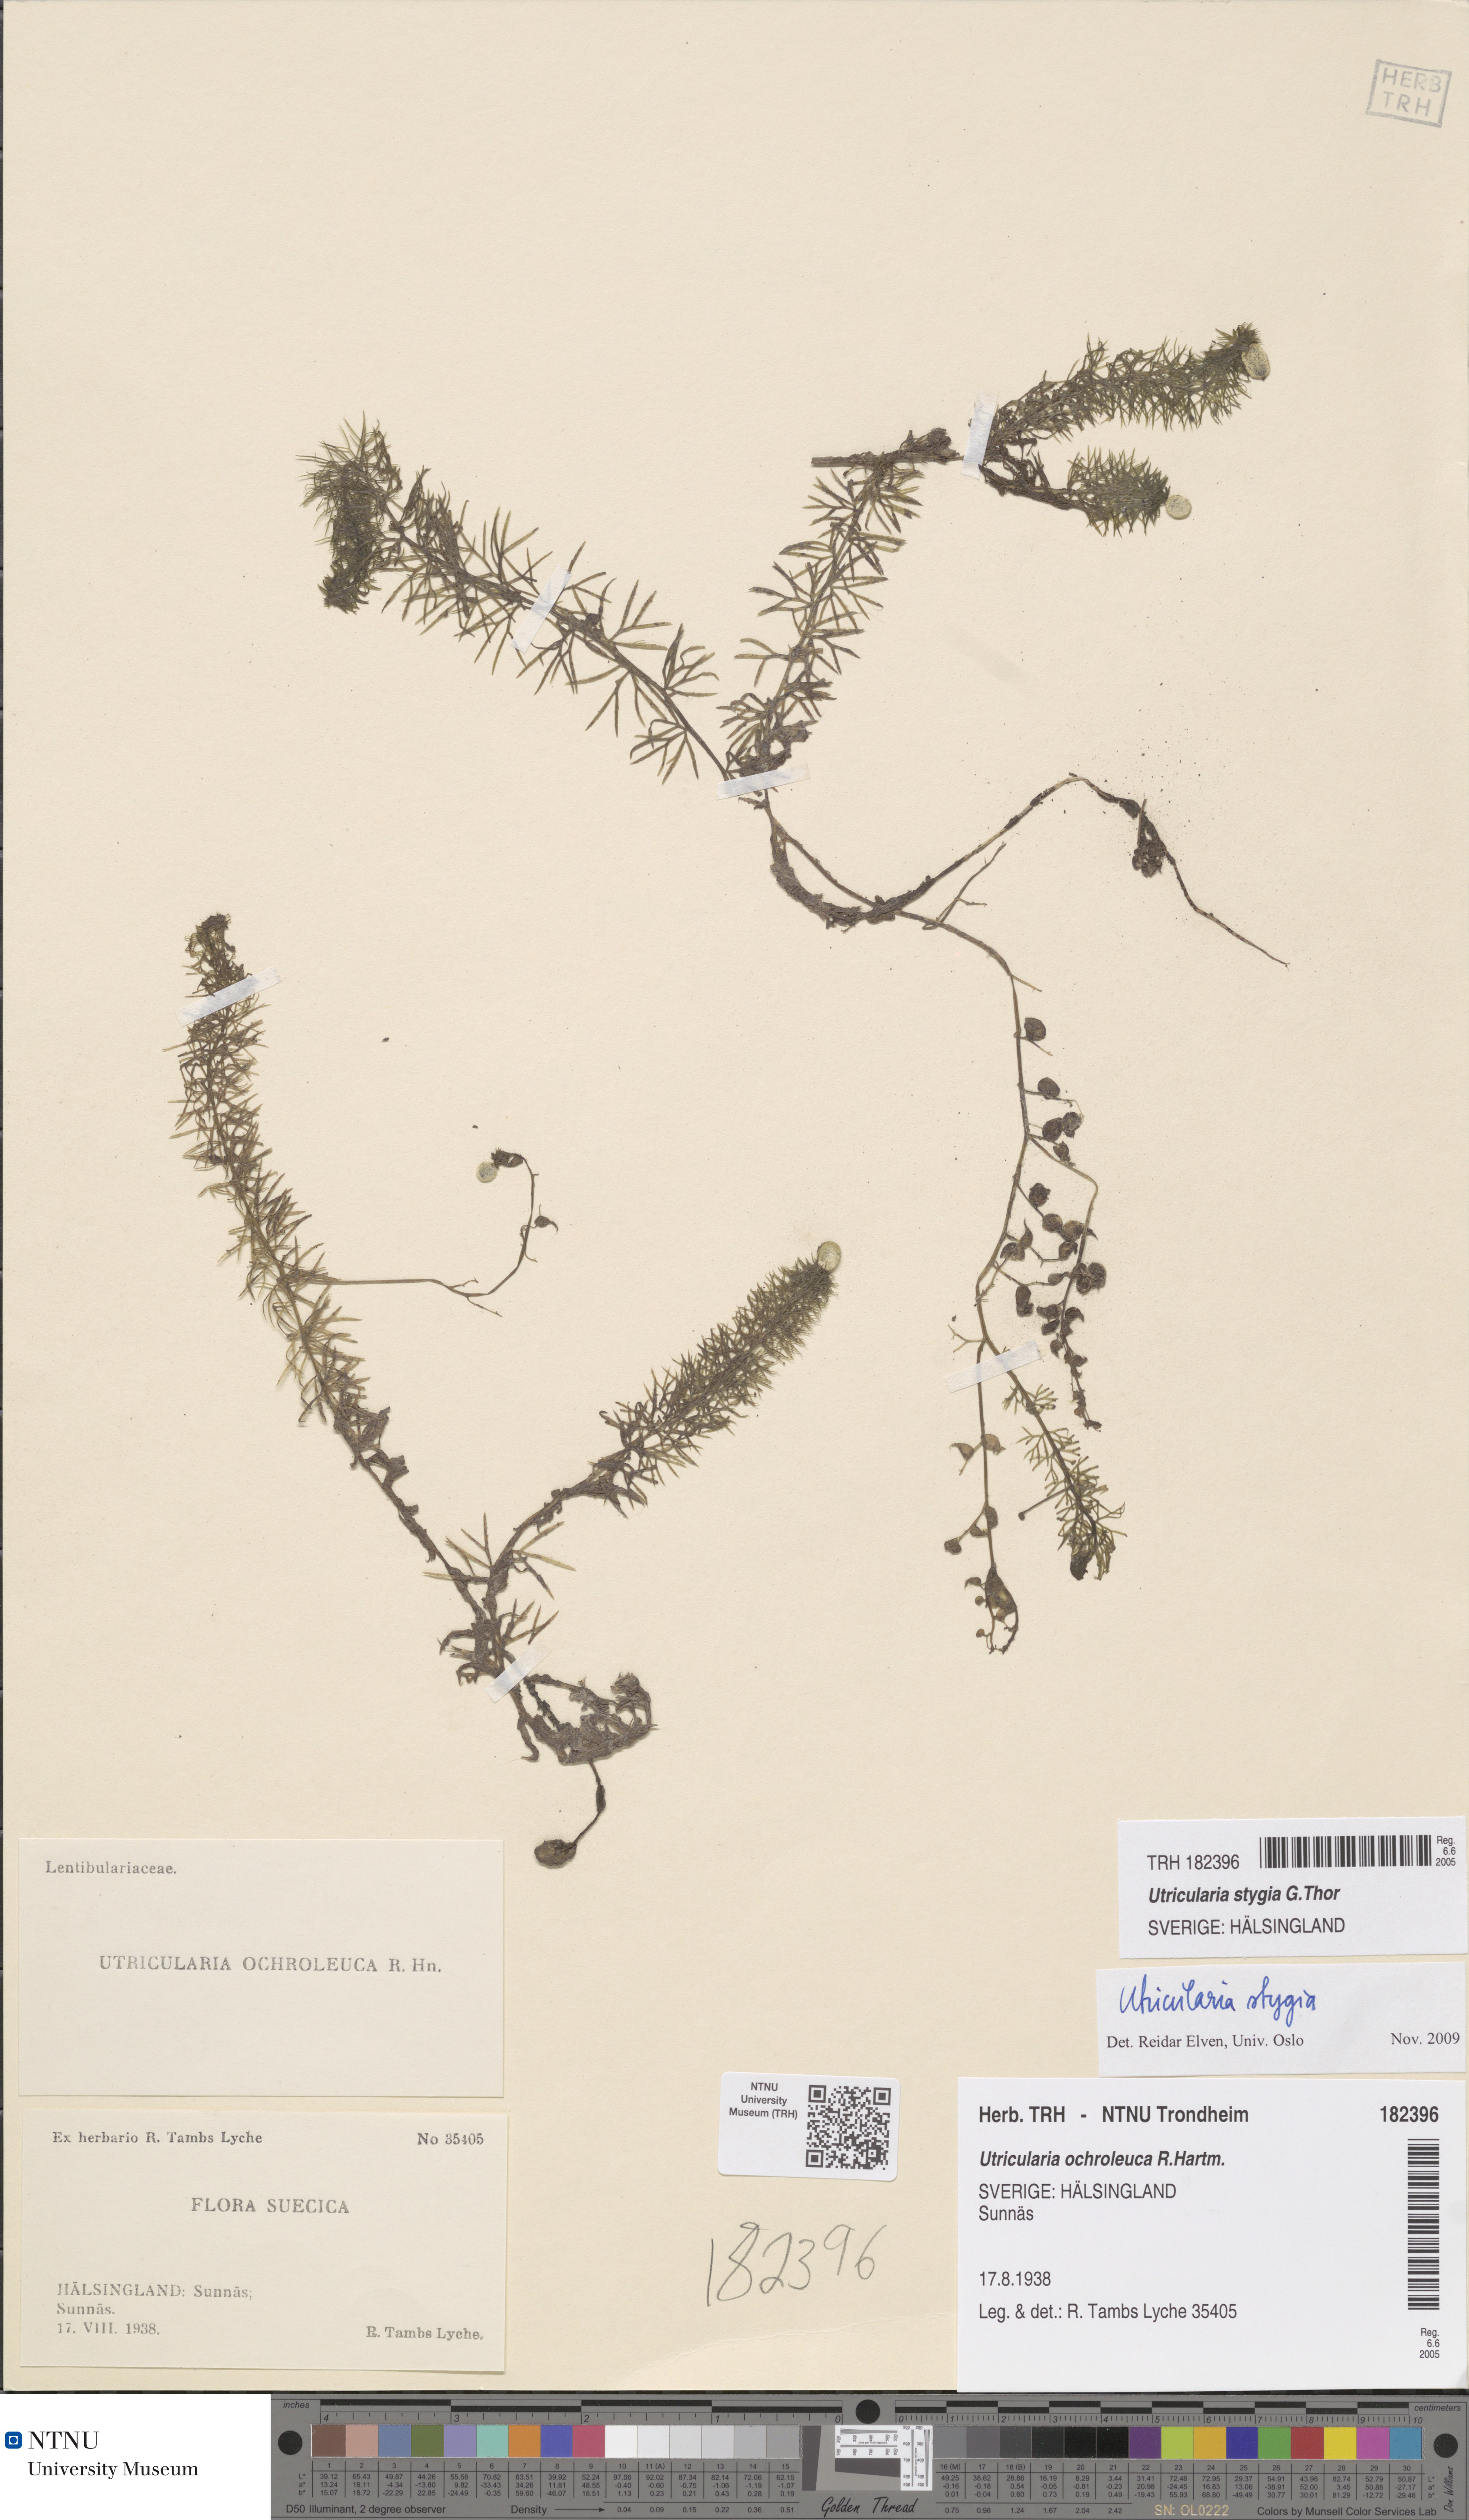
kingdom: Plantae
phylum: Tracheophyta
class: Magnoliopsida
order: Lamiales
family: Lentibulariaceae
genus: Utricularia
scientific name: Utricularia ochroleuca
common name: Pale bladderwort
